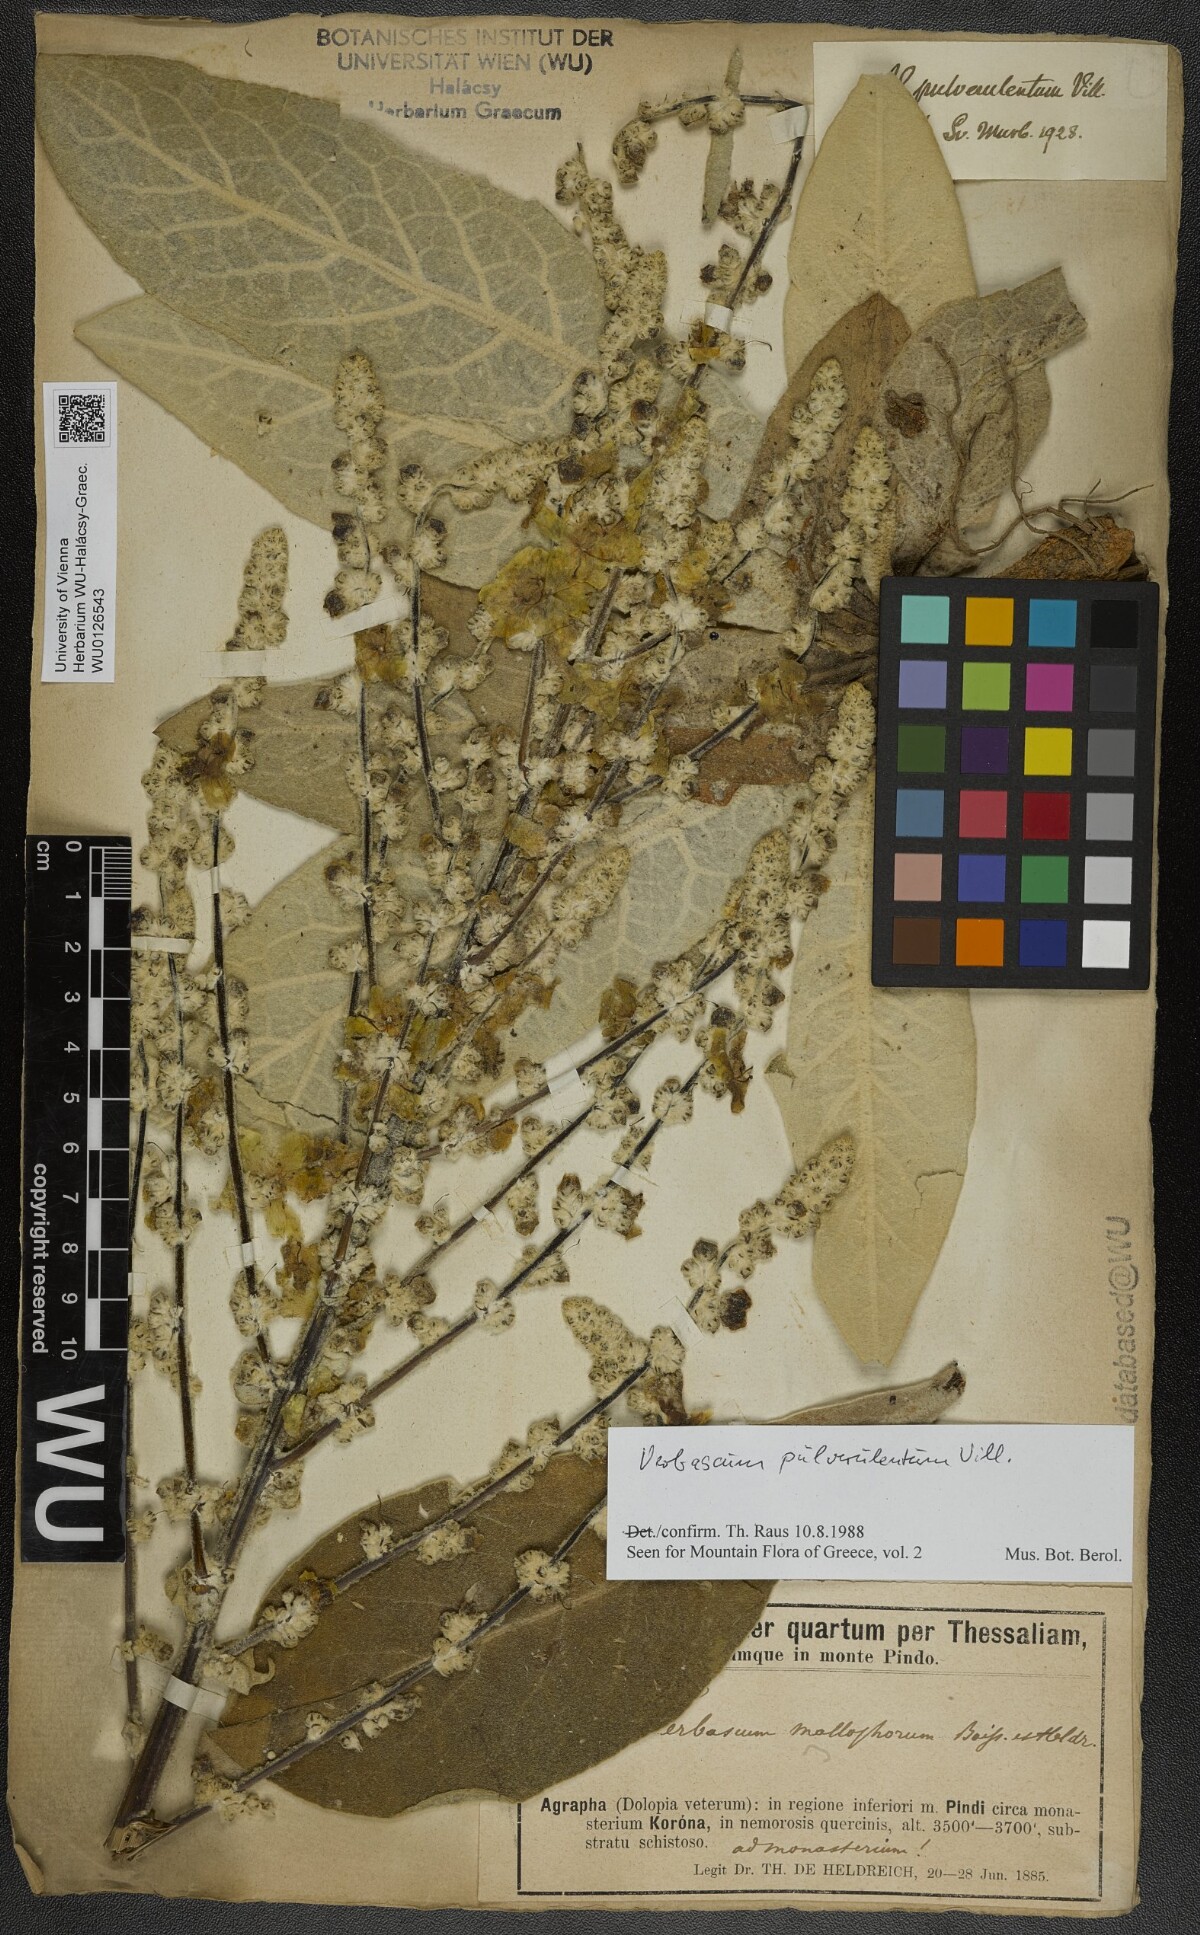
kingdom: Plantae
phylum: Tracheophyta
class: Magnoliopsida
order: Lamiales
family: Scrophulariaceae
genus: Verbascum
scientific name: Verbascum pulverulentum
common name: Broad-leaf mullein
